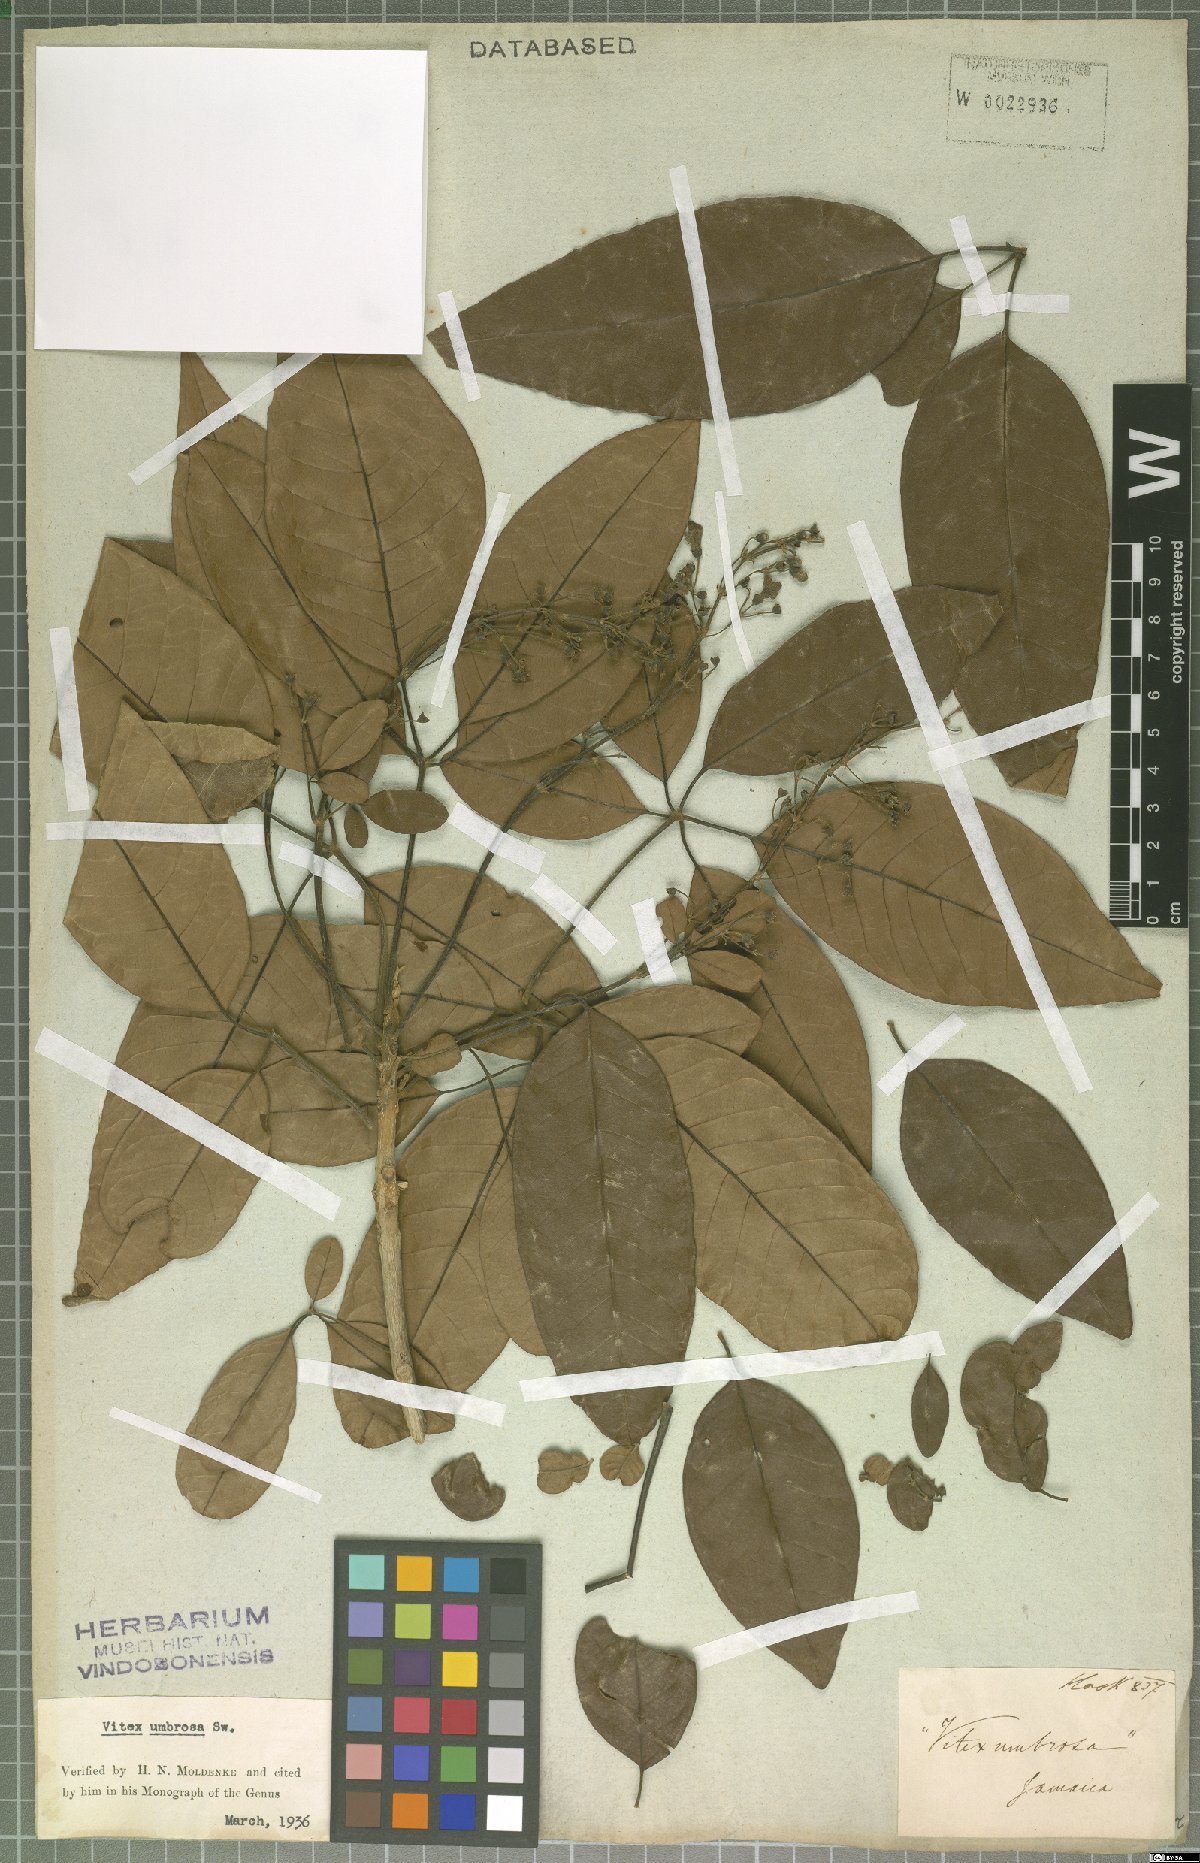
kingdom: Plantae
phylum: Tracheophyta
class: Magnoliopsida
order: Lamiales
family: Lamiaceae
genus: Vitex
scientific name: Vitex umbrosa
